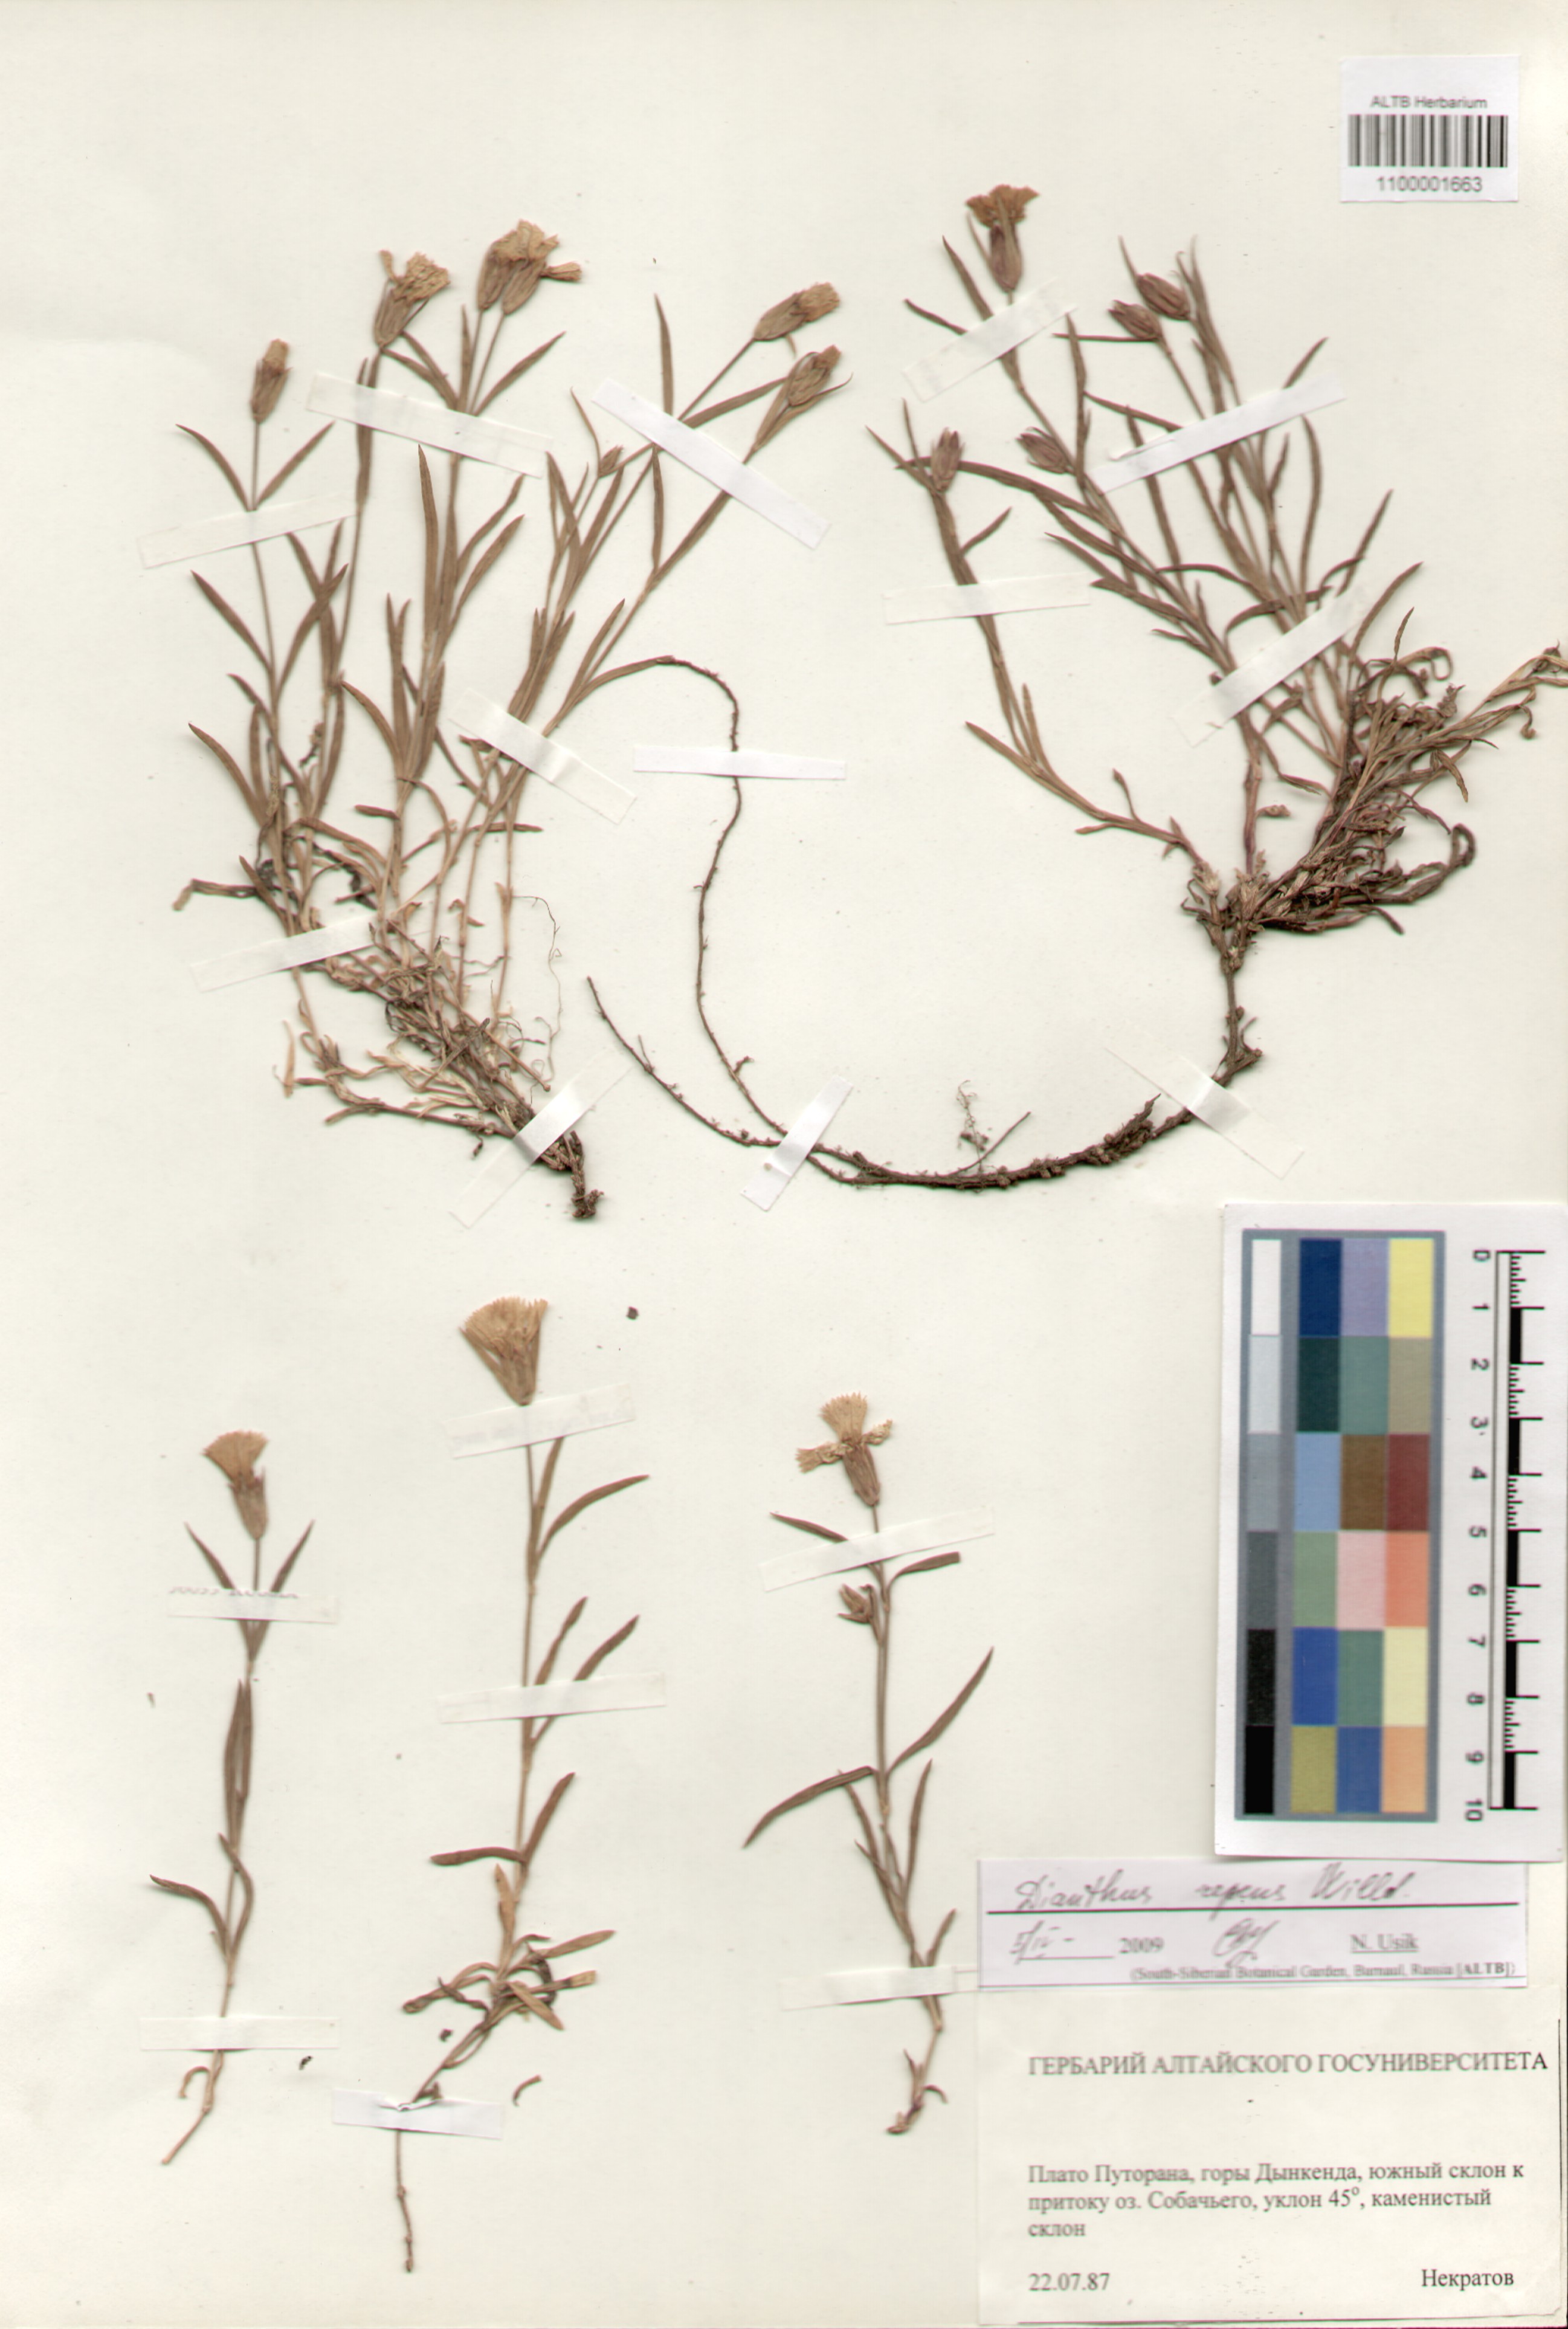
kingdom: Plantae
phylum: Tracheophyta
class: Magnoliopsida
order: Caryophyllales
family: Caryophyllaceae
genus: Dianthus
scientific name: Dianthus repens
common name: Northern pink
